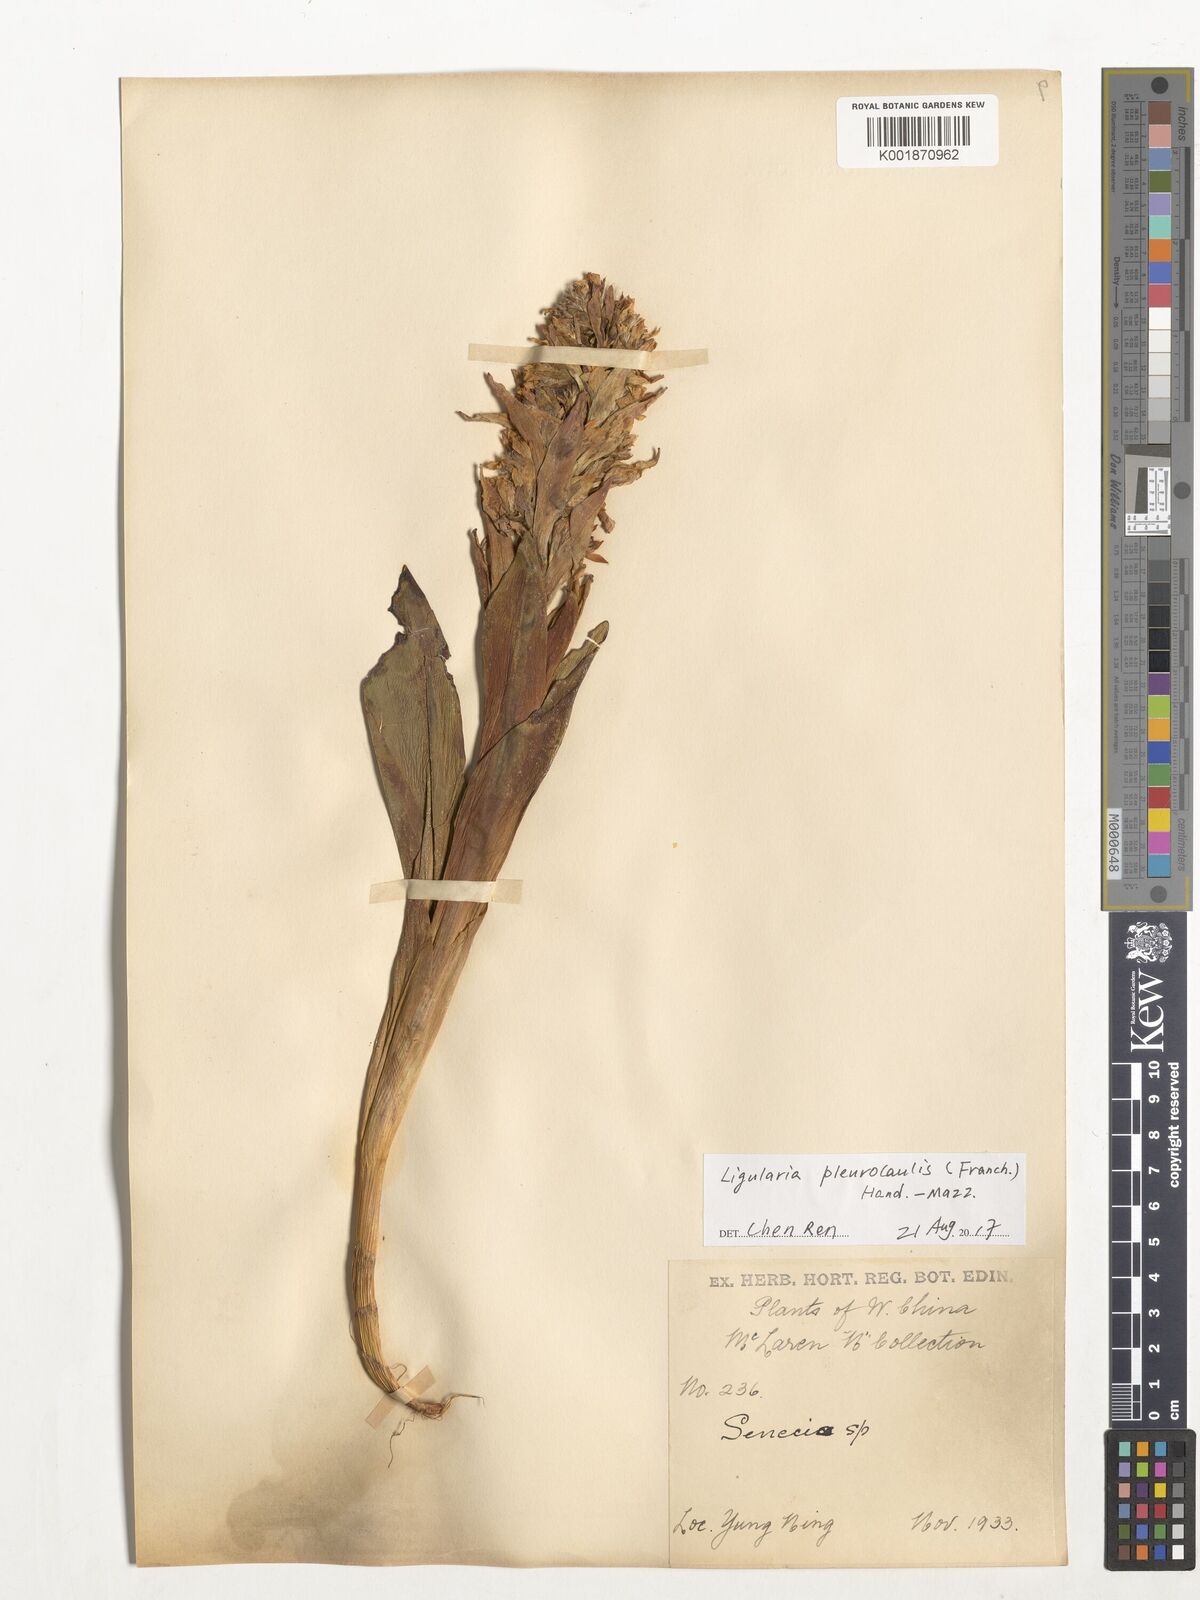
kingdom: Plantae
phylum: Tracheophyta
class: Magnoliopsida
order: Asterales
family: Asteraceae
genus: Ligularia
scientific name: Ligularia pleurocaulis
